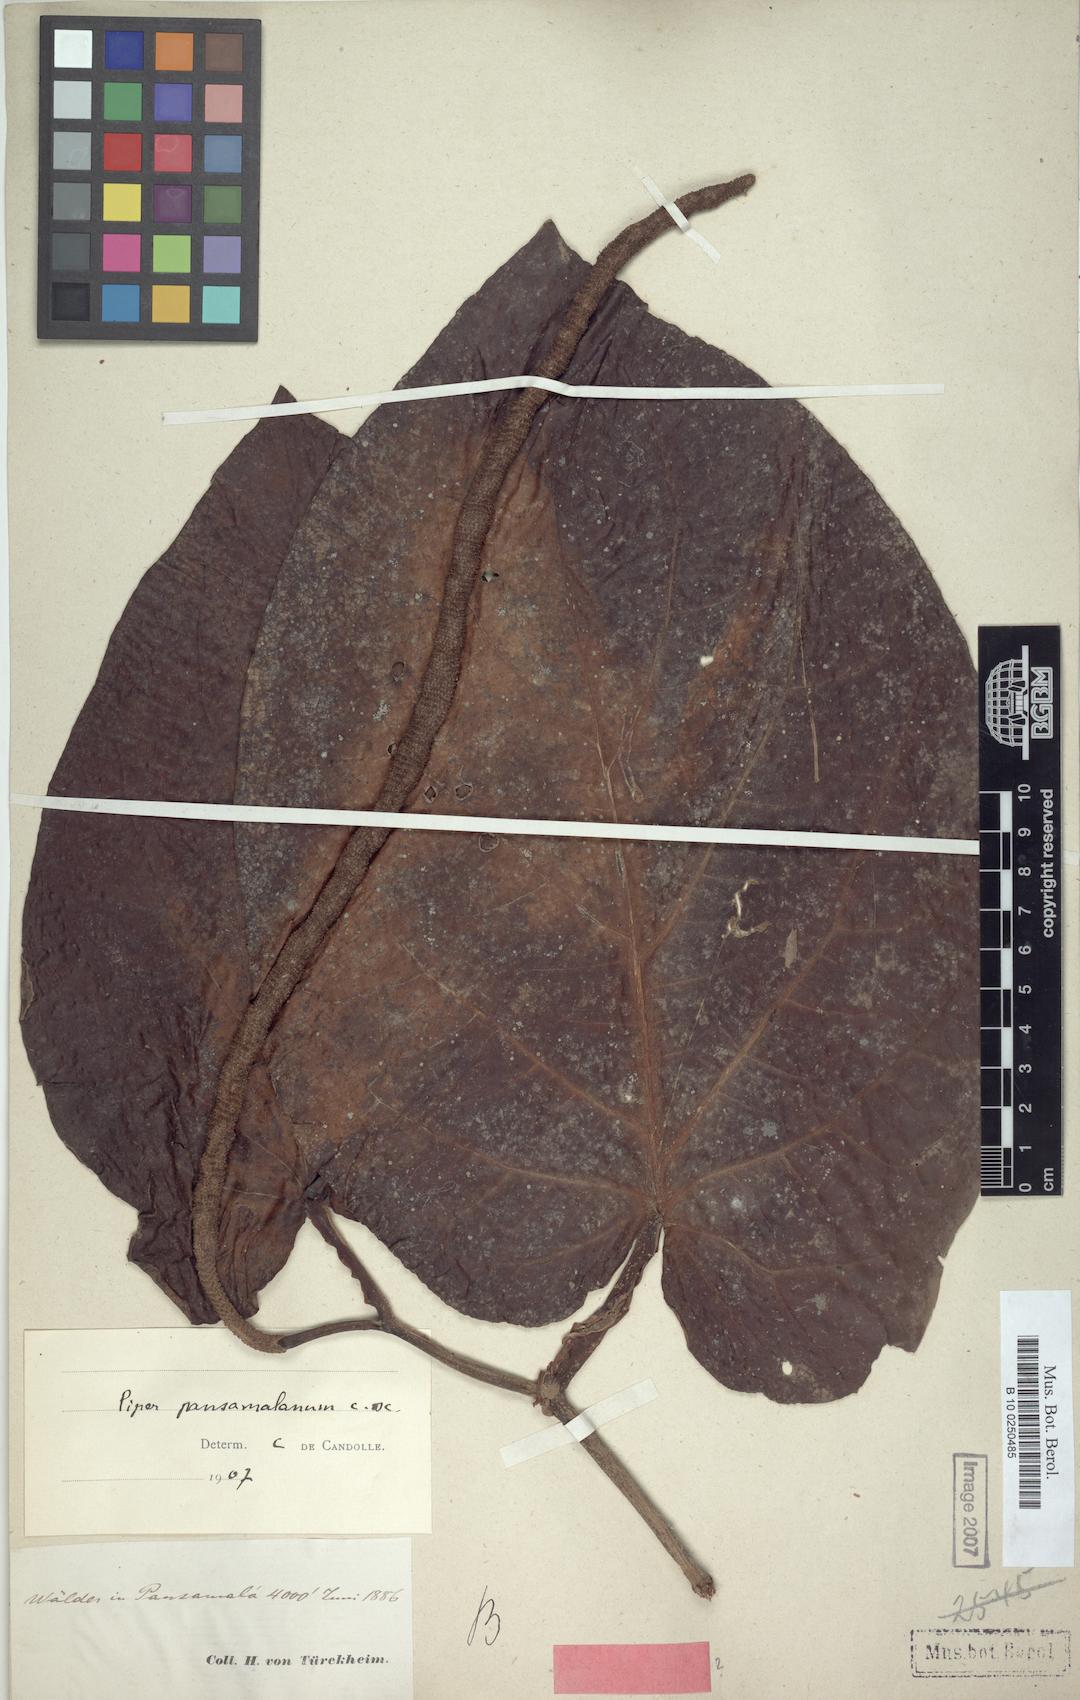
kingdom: Plantae
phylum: Tracheophyta
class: Magnoliopsida
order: Piperales
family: Piperaceae
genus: Piper
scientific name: Piper pansamalanum
